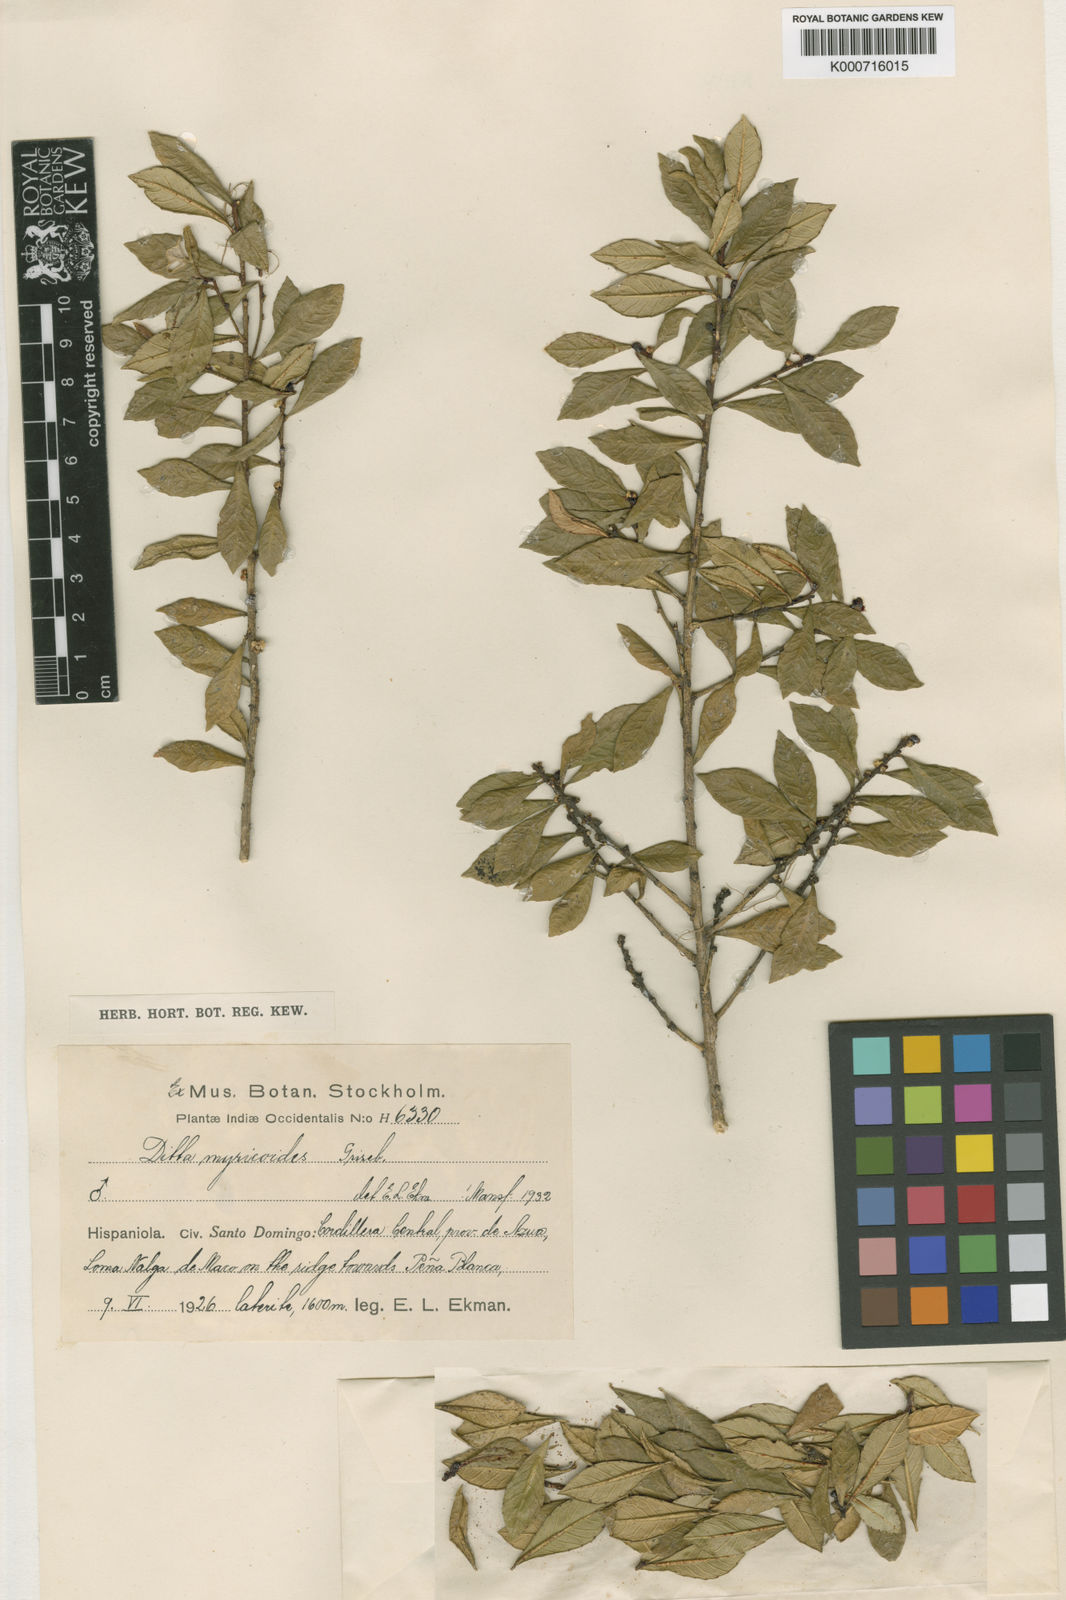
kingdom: Plantae
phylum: Tracheophyta
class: Magnoliopsida
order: Malpighiales
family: Euphorbiaceae
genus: Ditta
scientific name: Ditta myricoides
